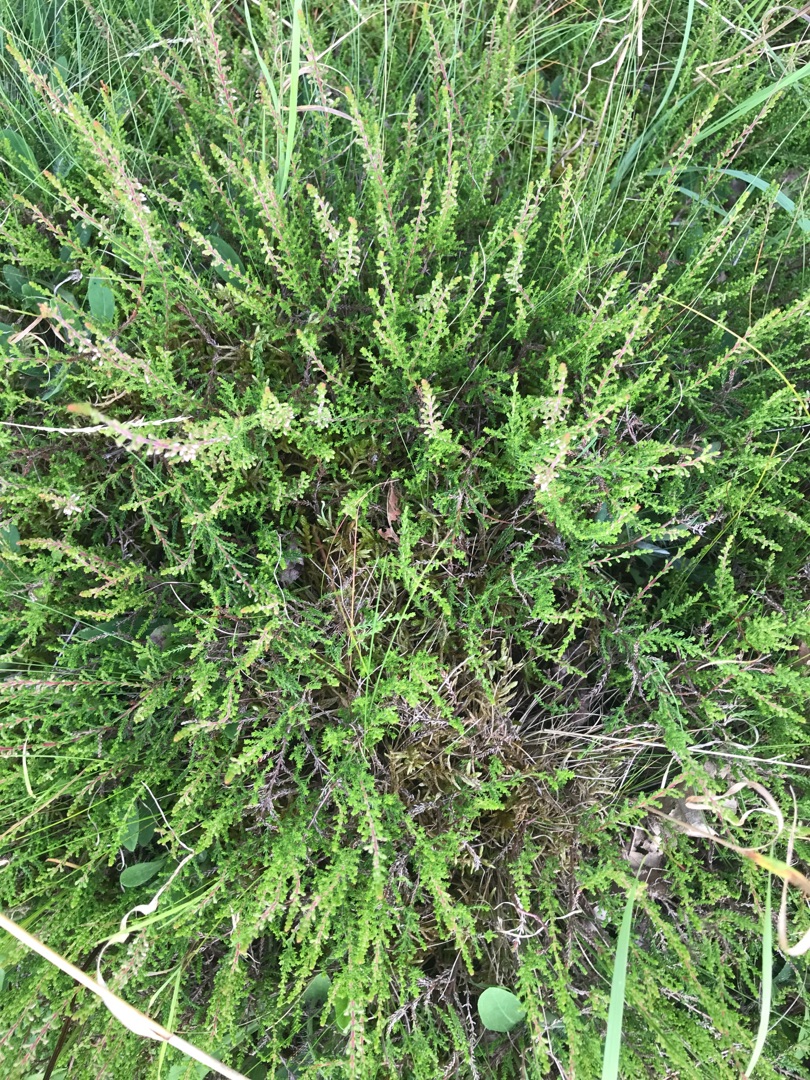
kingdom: Plantae
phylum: Tracheophyta
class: Magnoliopsida
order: Ericales
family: Ericaceae
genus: Calluna
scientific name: Calluna vulgaris
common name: Hedelyng
